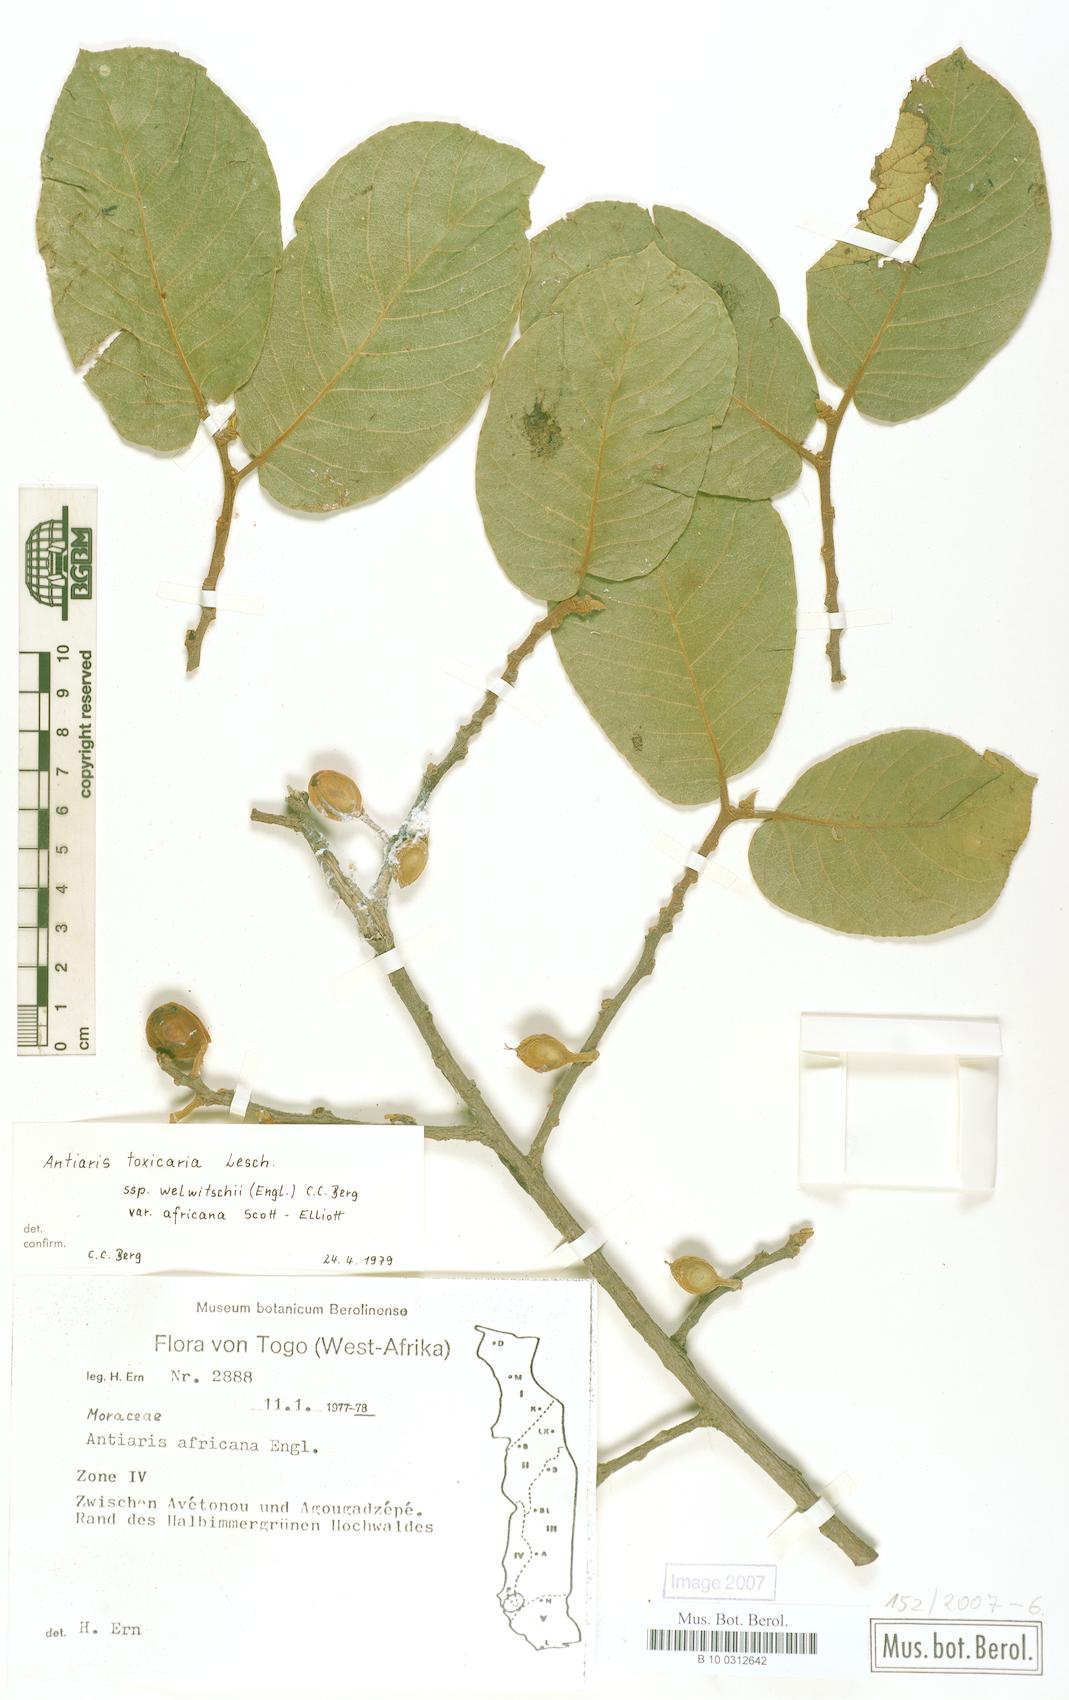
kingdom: Plantae
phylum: Tracheophyta
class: Magnoliopsida
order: Rosales
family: Moraceae
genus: Antiaris
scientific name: Antiaris toxicaria
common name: Sackingtree
